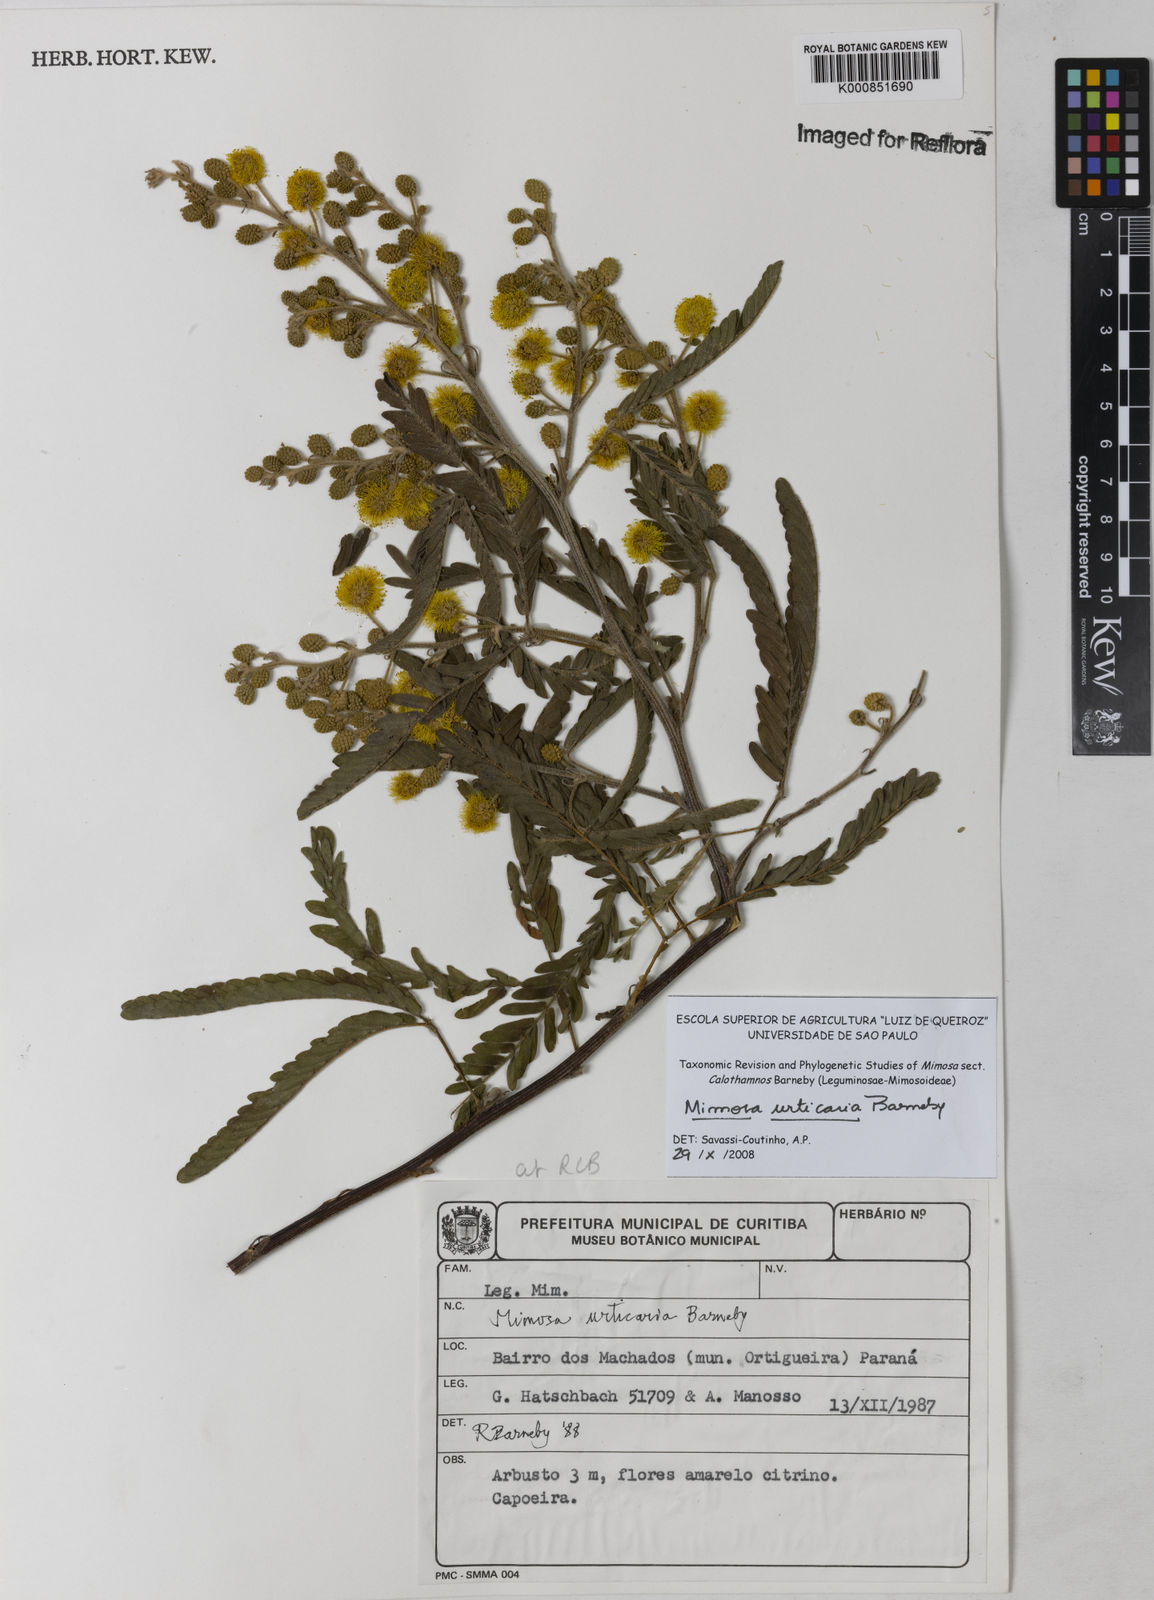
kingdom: Plantae
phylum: Tracheophyta
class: Magnoliopsida
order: Fabales
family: Fabaceae
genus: Mimosa
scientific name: Mimosa urticaria
